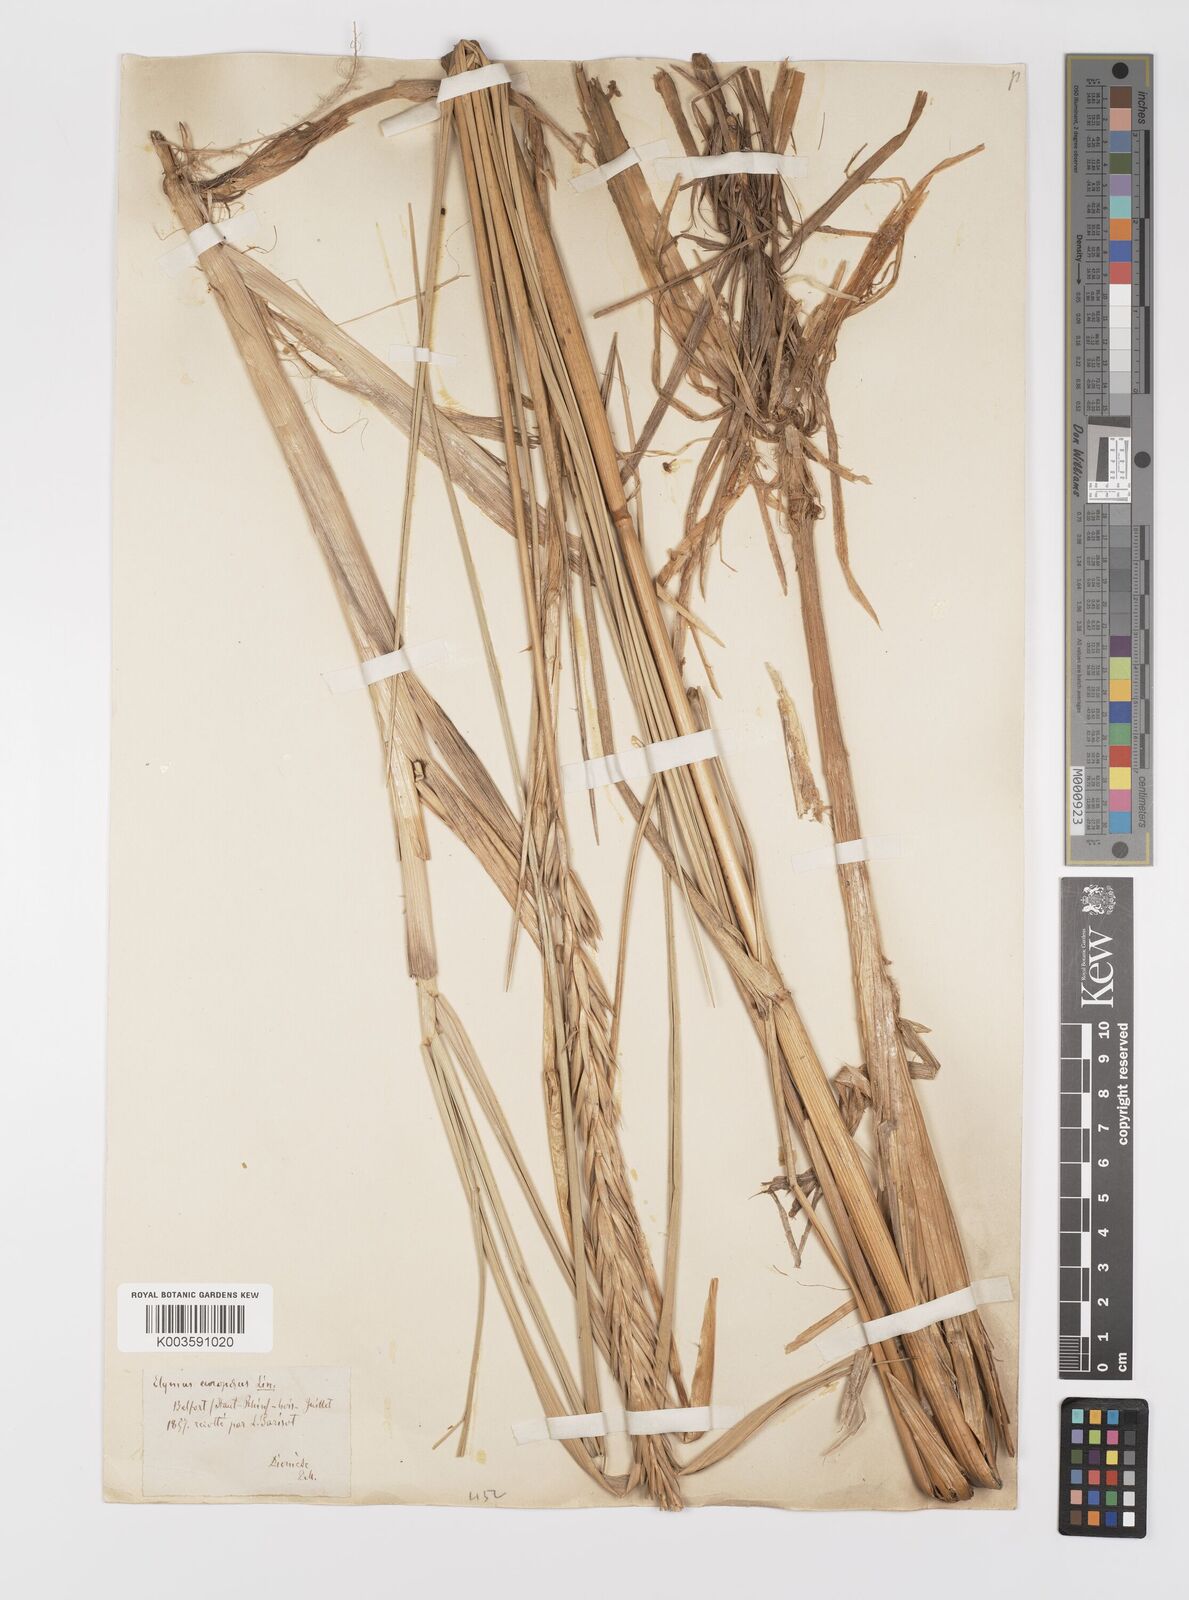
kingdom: Plantae
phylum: Tracheophyta
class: Liliopsida
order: Poales
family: Poaceae
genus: Leymus
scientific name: Leymus arenarius
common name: Lyme-grass
